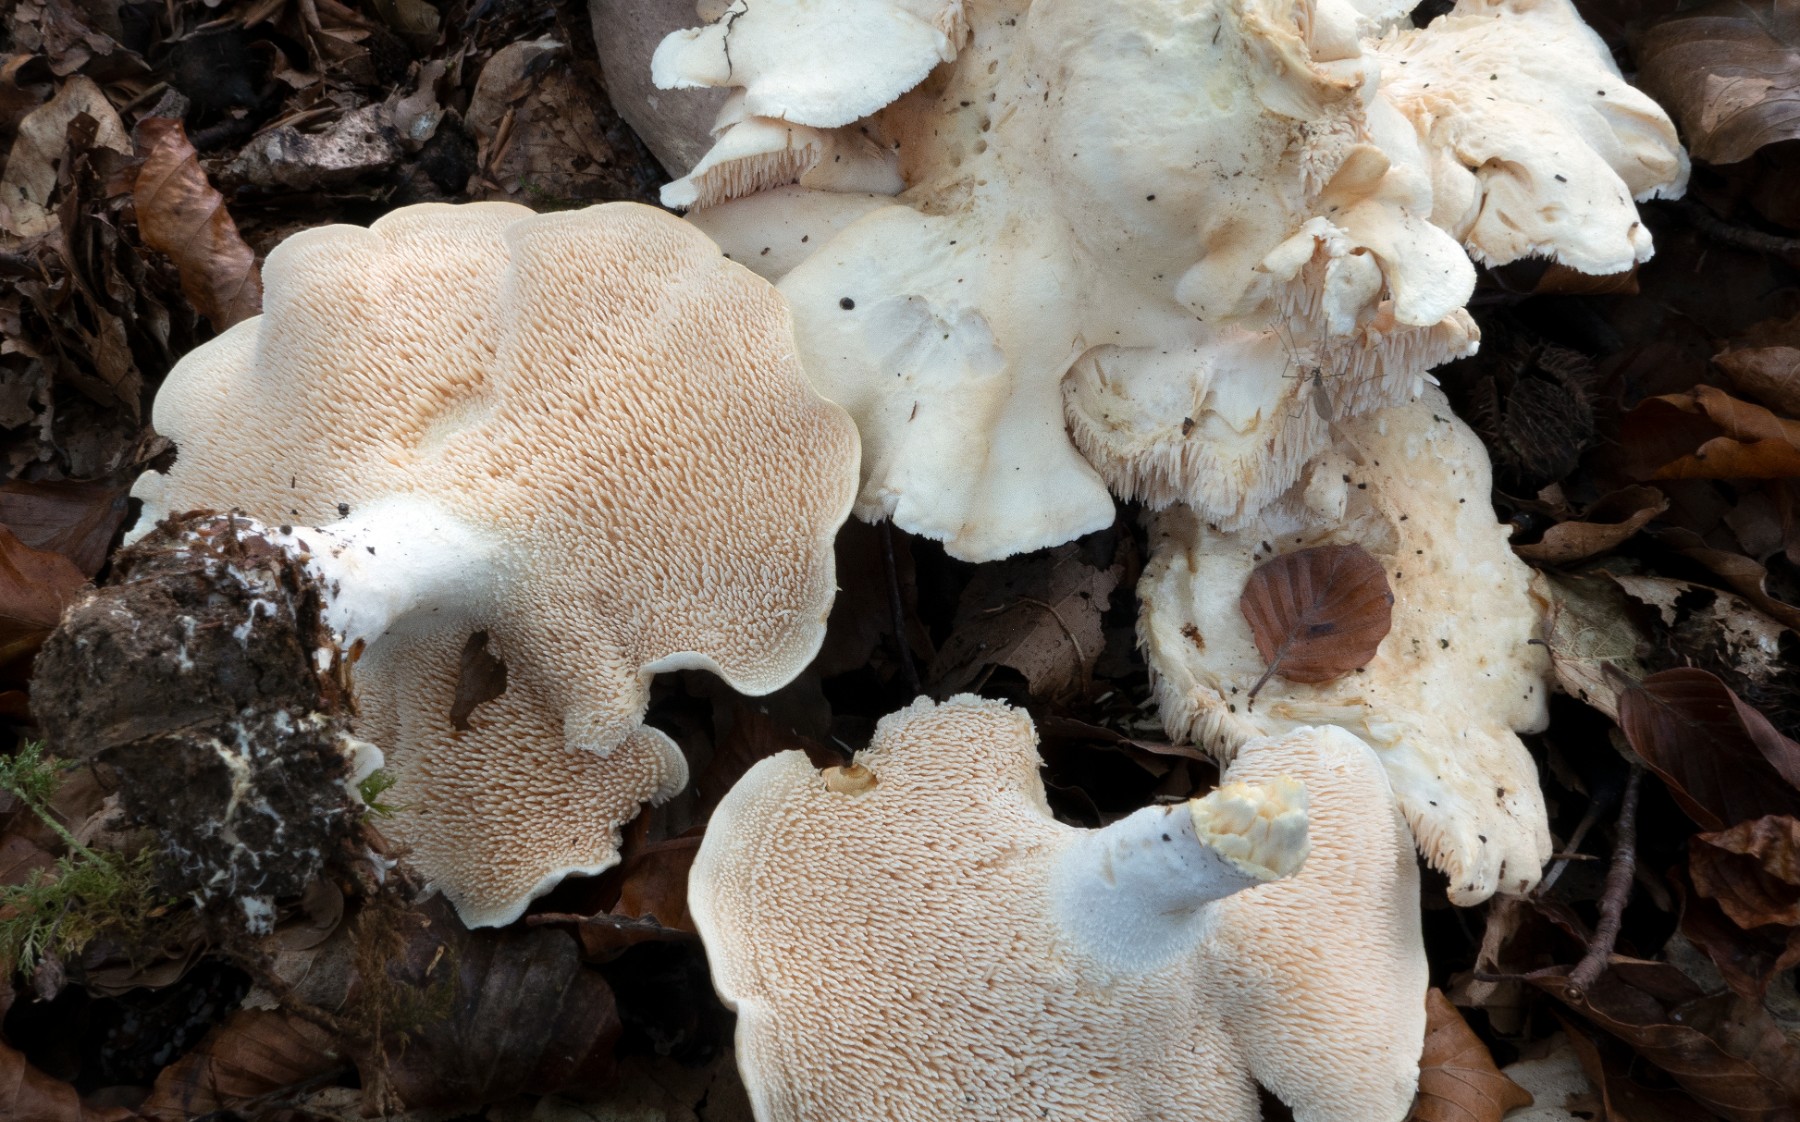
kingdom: Fungi
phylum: Basidiomycota
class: Agaricomycetes
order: Cantharellales
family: Hydnaceae
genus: Hydnum
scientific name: Hydnum
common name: pigsvamp
